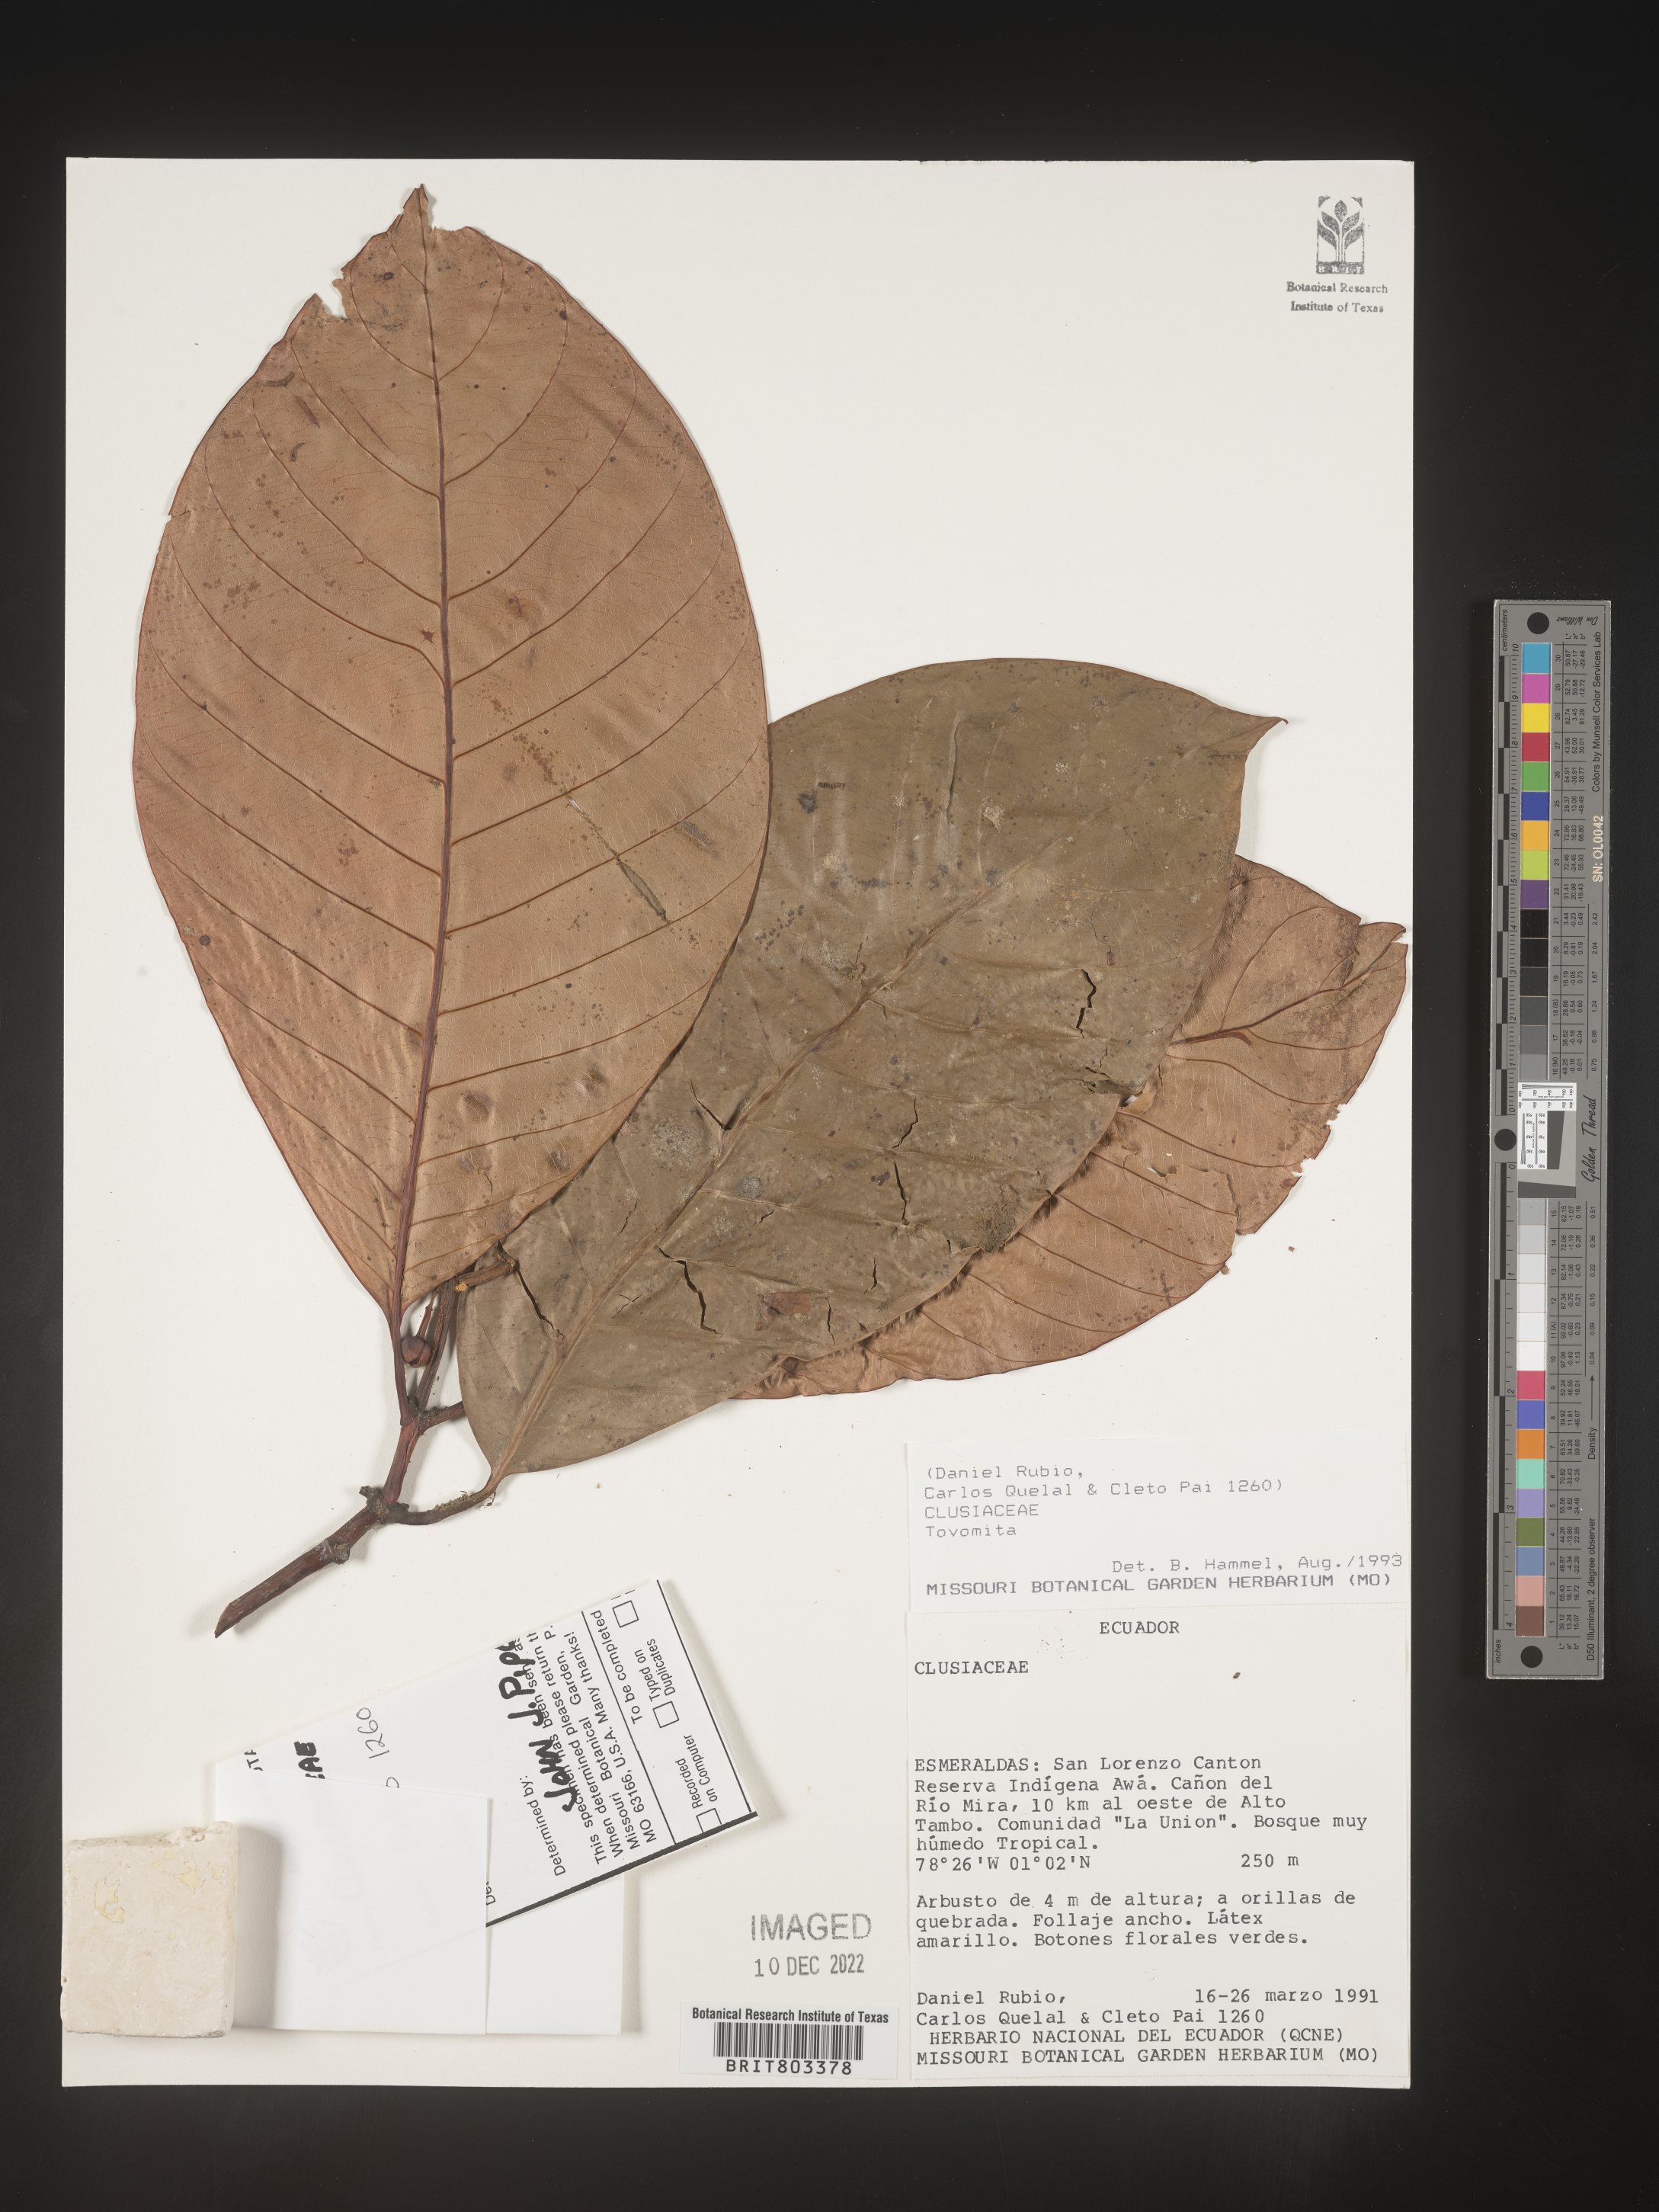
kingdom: Plantae
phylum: Tracheophyta
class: Magnoliopsida
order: Malpighiales
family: Clusiaceae
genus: Tovomita
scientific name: Tovomita
